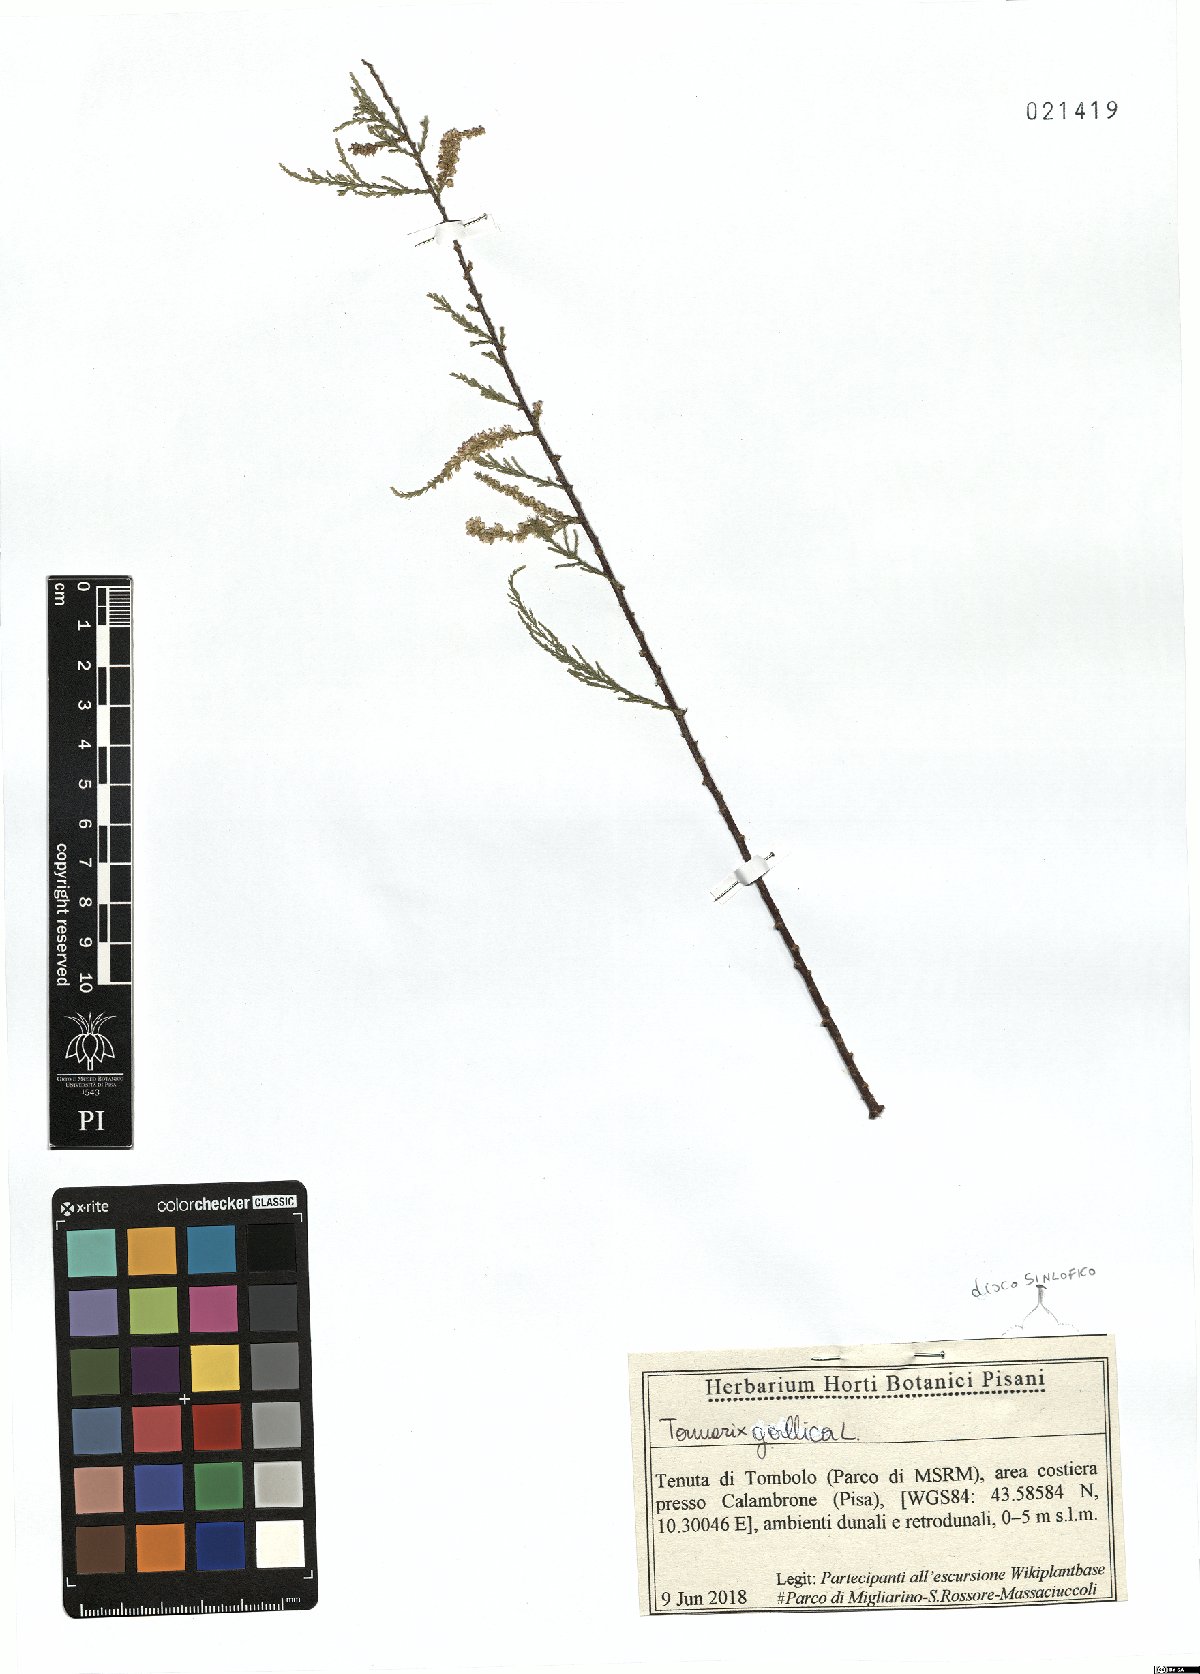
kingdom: Plantae
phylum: Tracheophyta
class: Magnoliopsida
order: Caryophyllales
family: Tamaricaceae
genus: Tamarix
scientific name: Tamarix gallica
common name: Tamarisk
